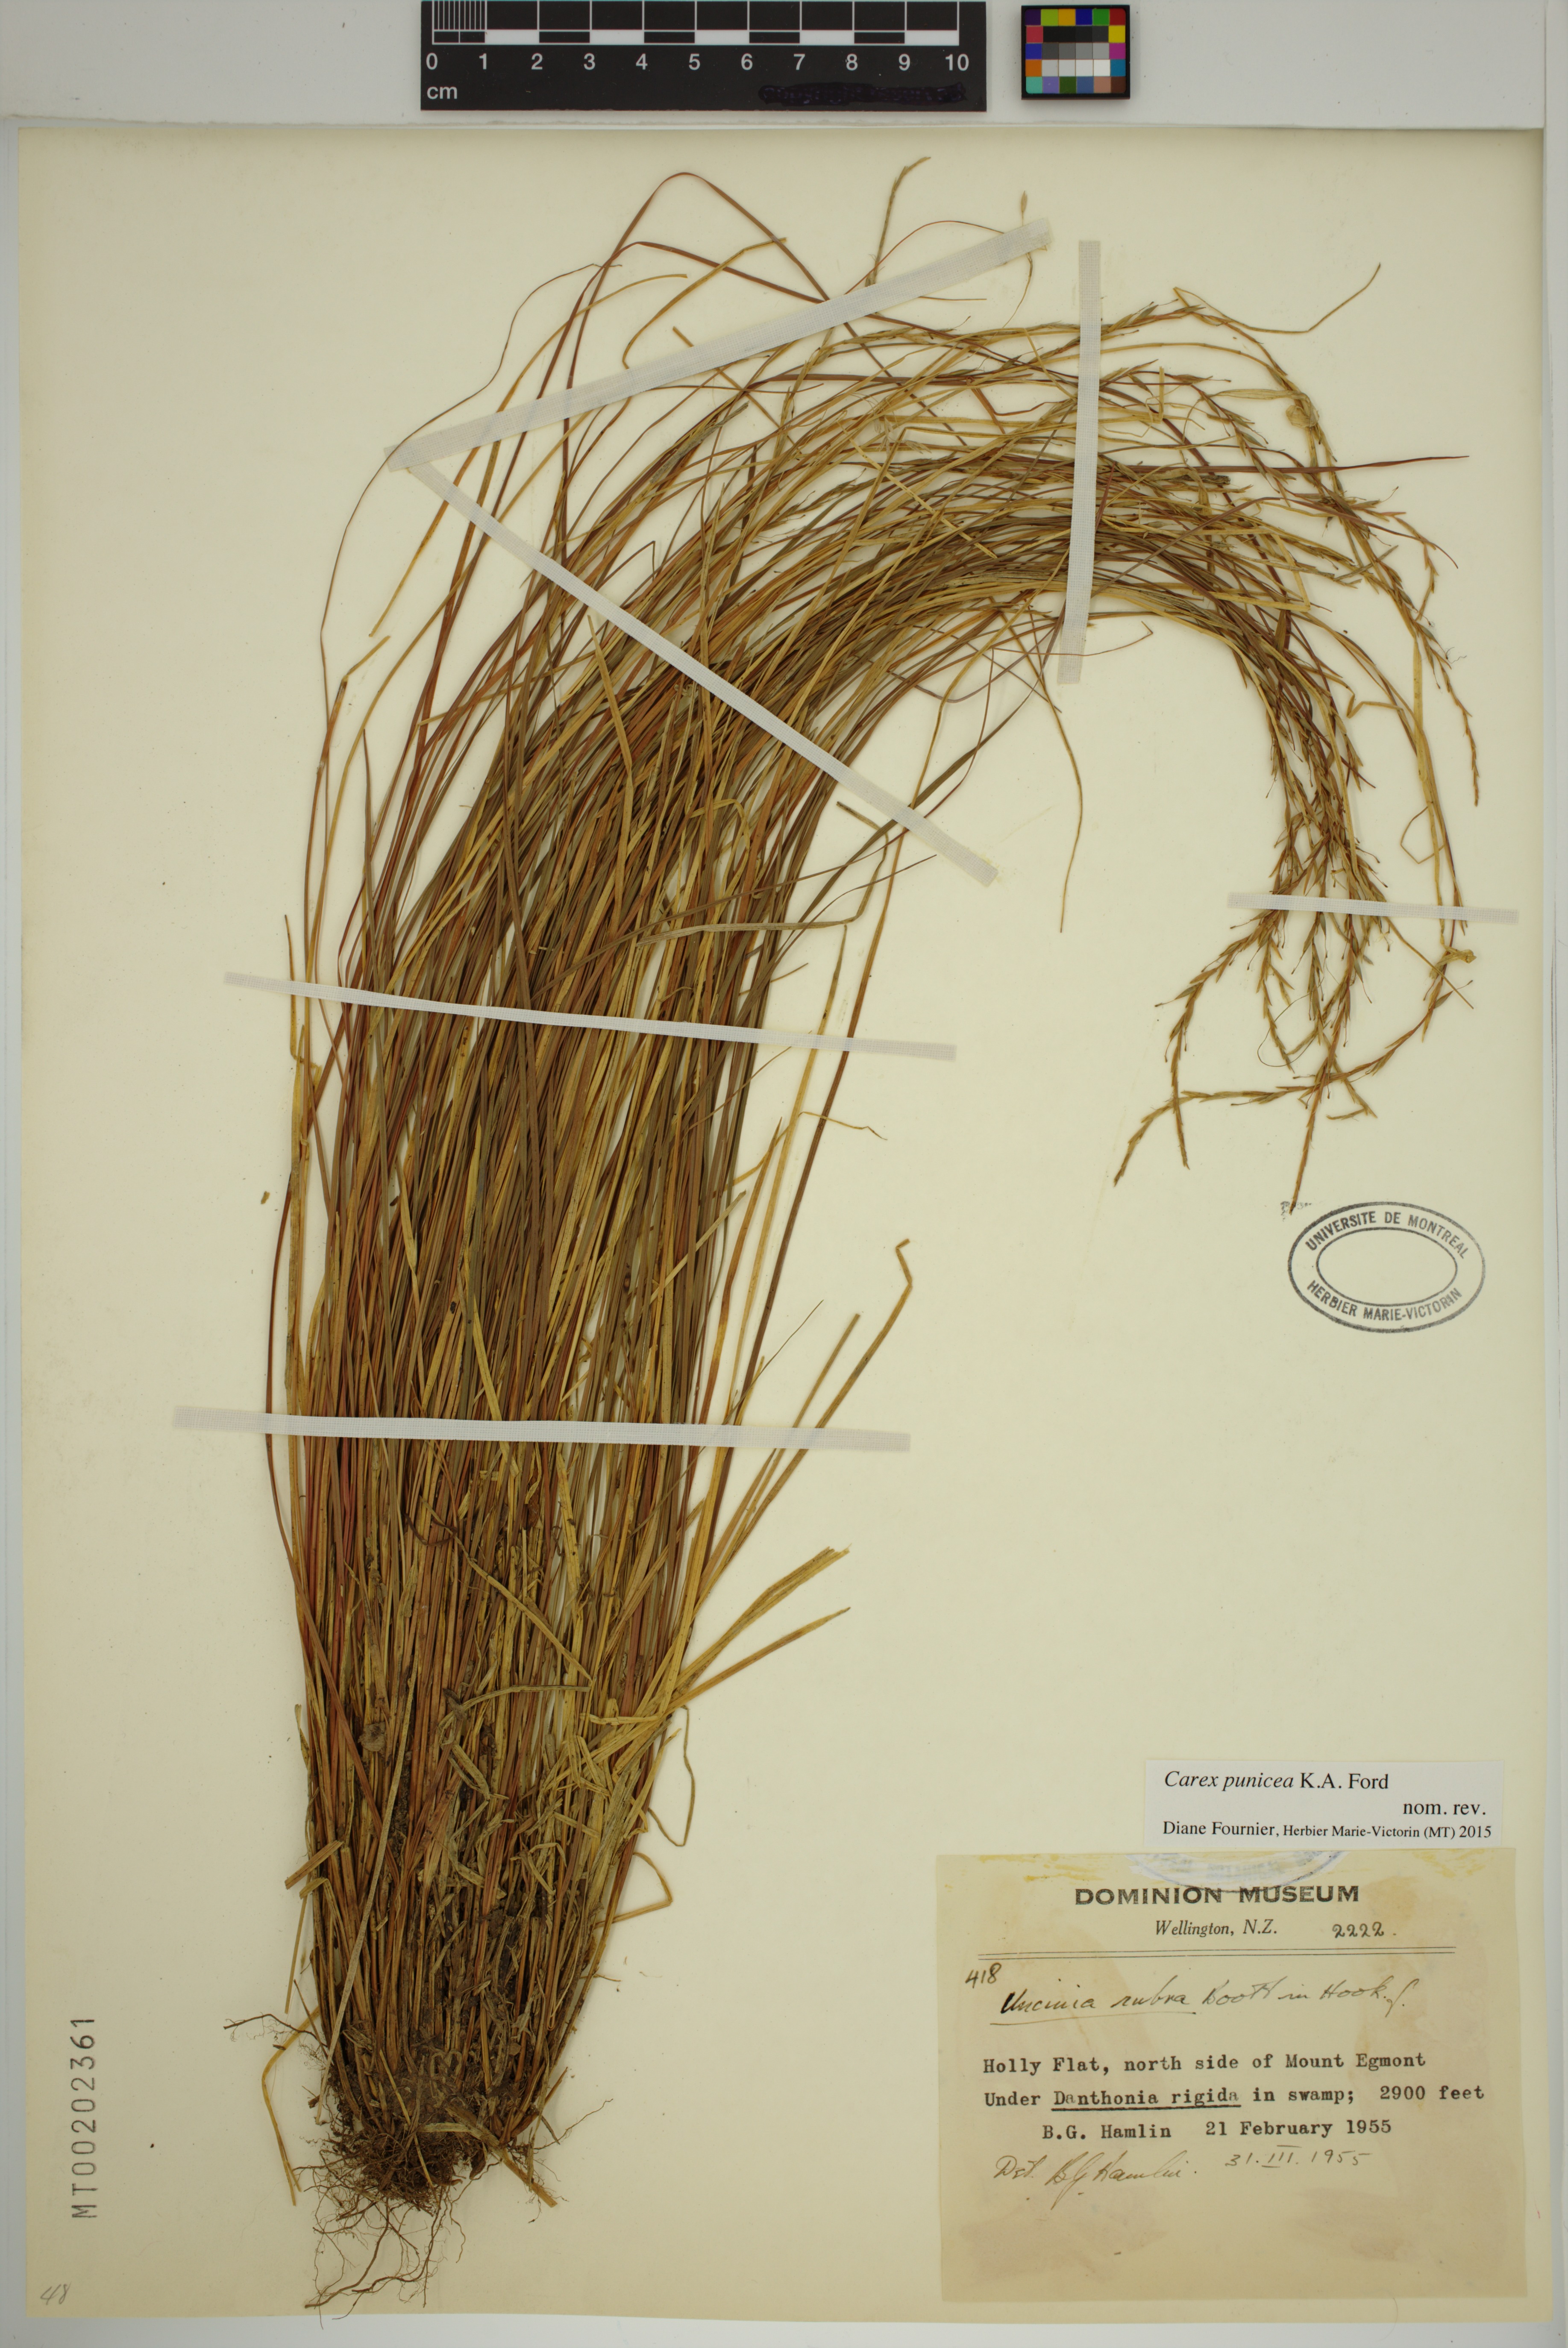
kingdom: Plantae
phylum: Tracheophyta
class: Liliopsida
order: Poales
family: Cyperaceae
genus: Carex
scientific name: Carex punicea
